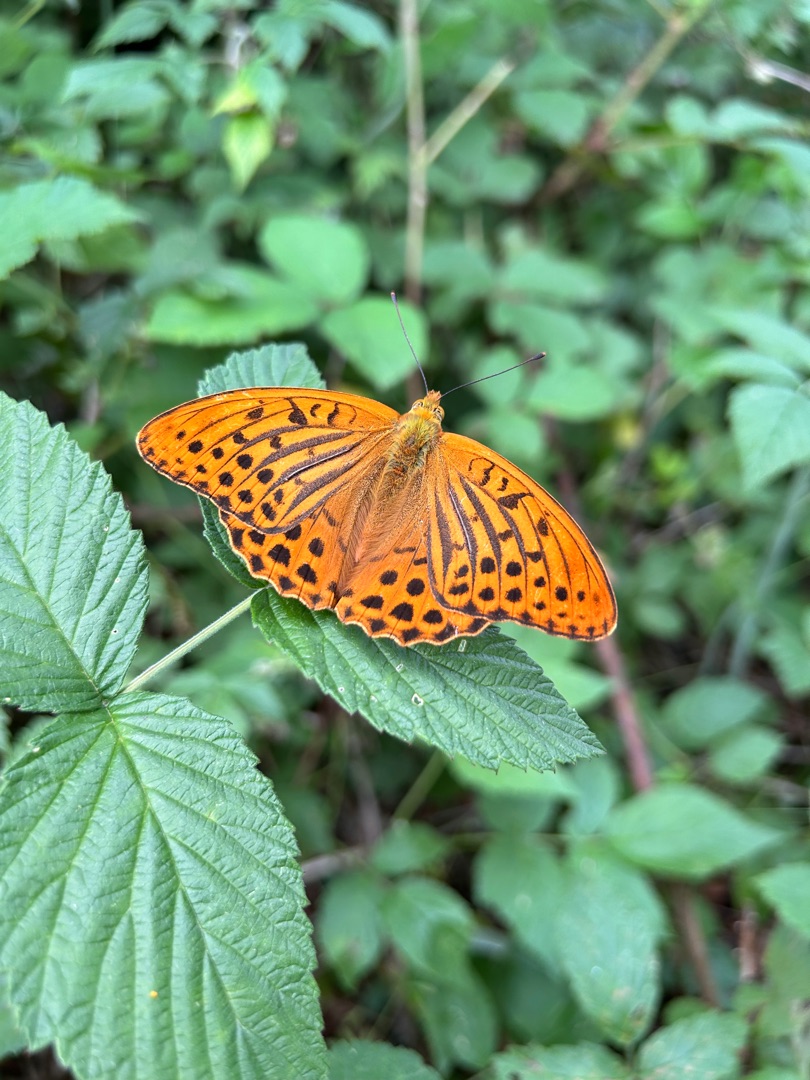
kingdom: Animalia
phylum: Arthropoda
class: Insecta
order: Lepidoptera
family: Nymphalidae
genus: Argynnis
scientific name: Argynnis paphia
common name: Kejserkåbe
